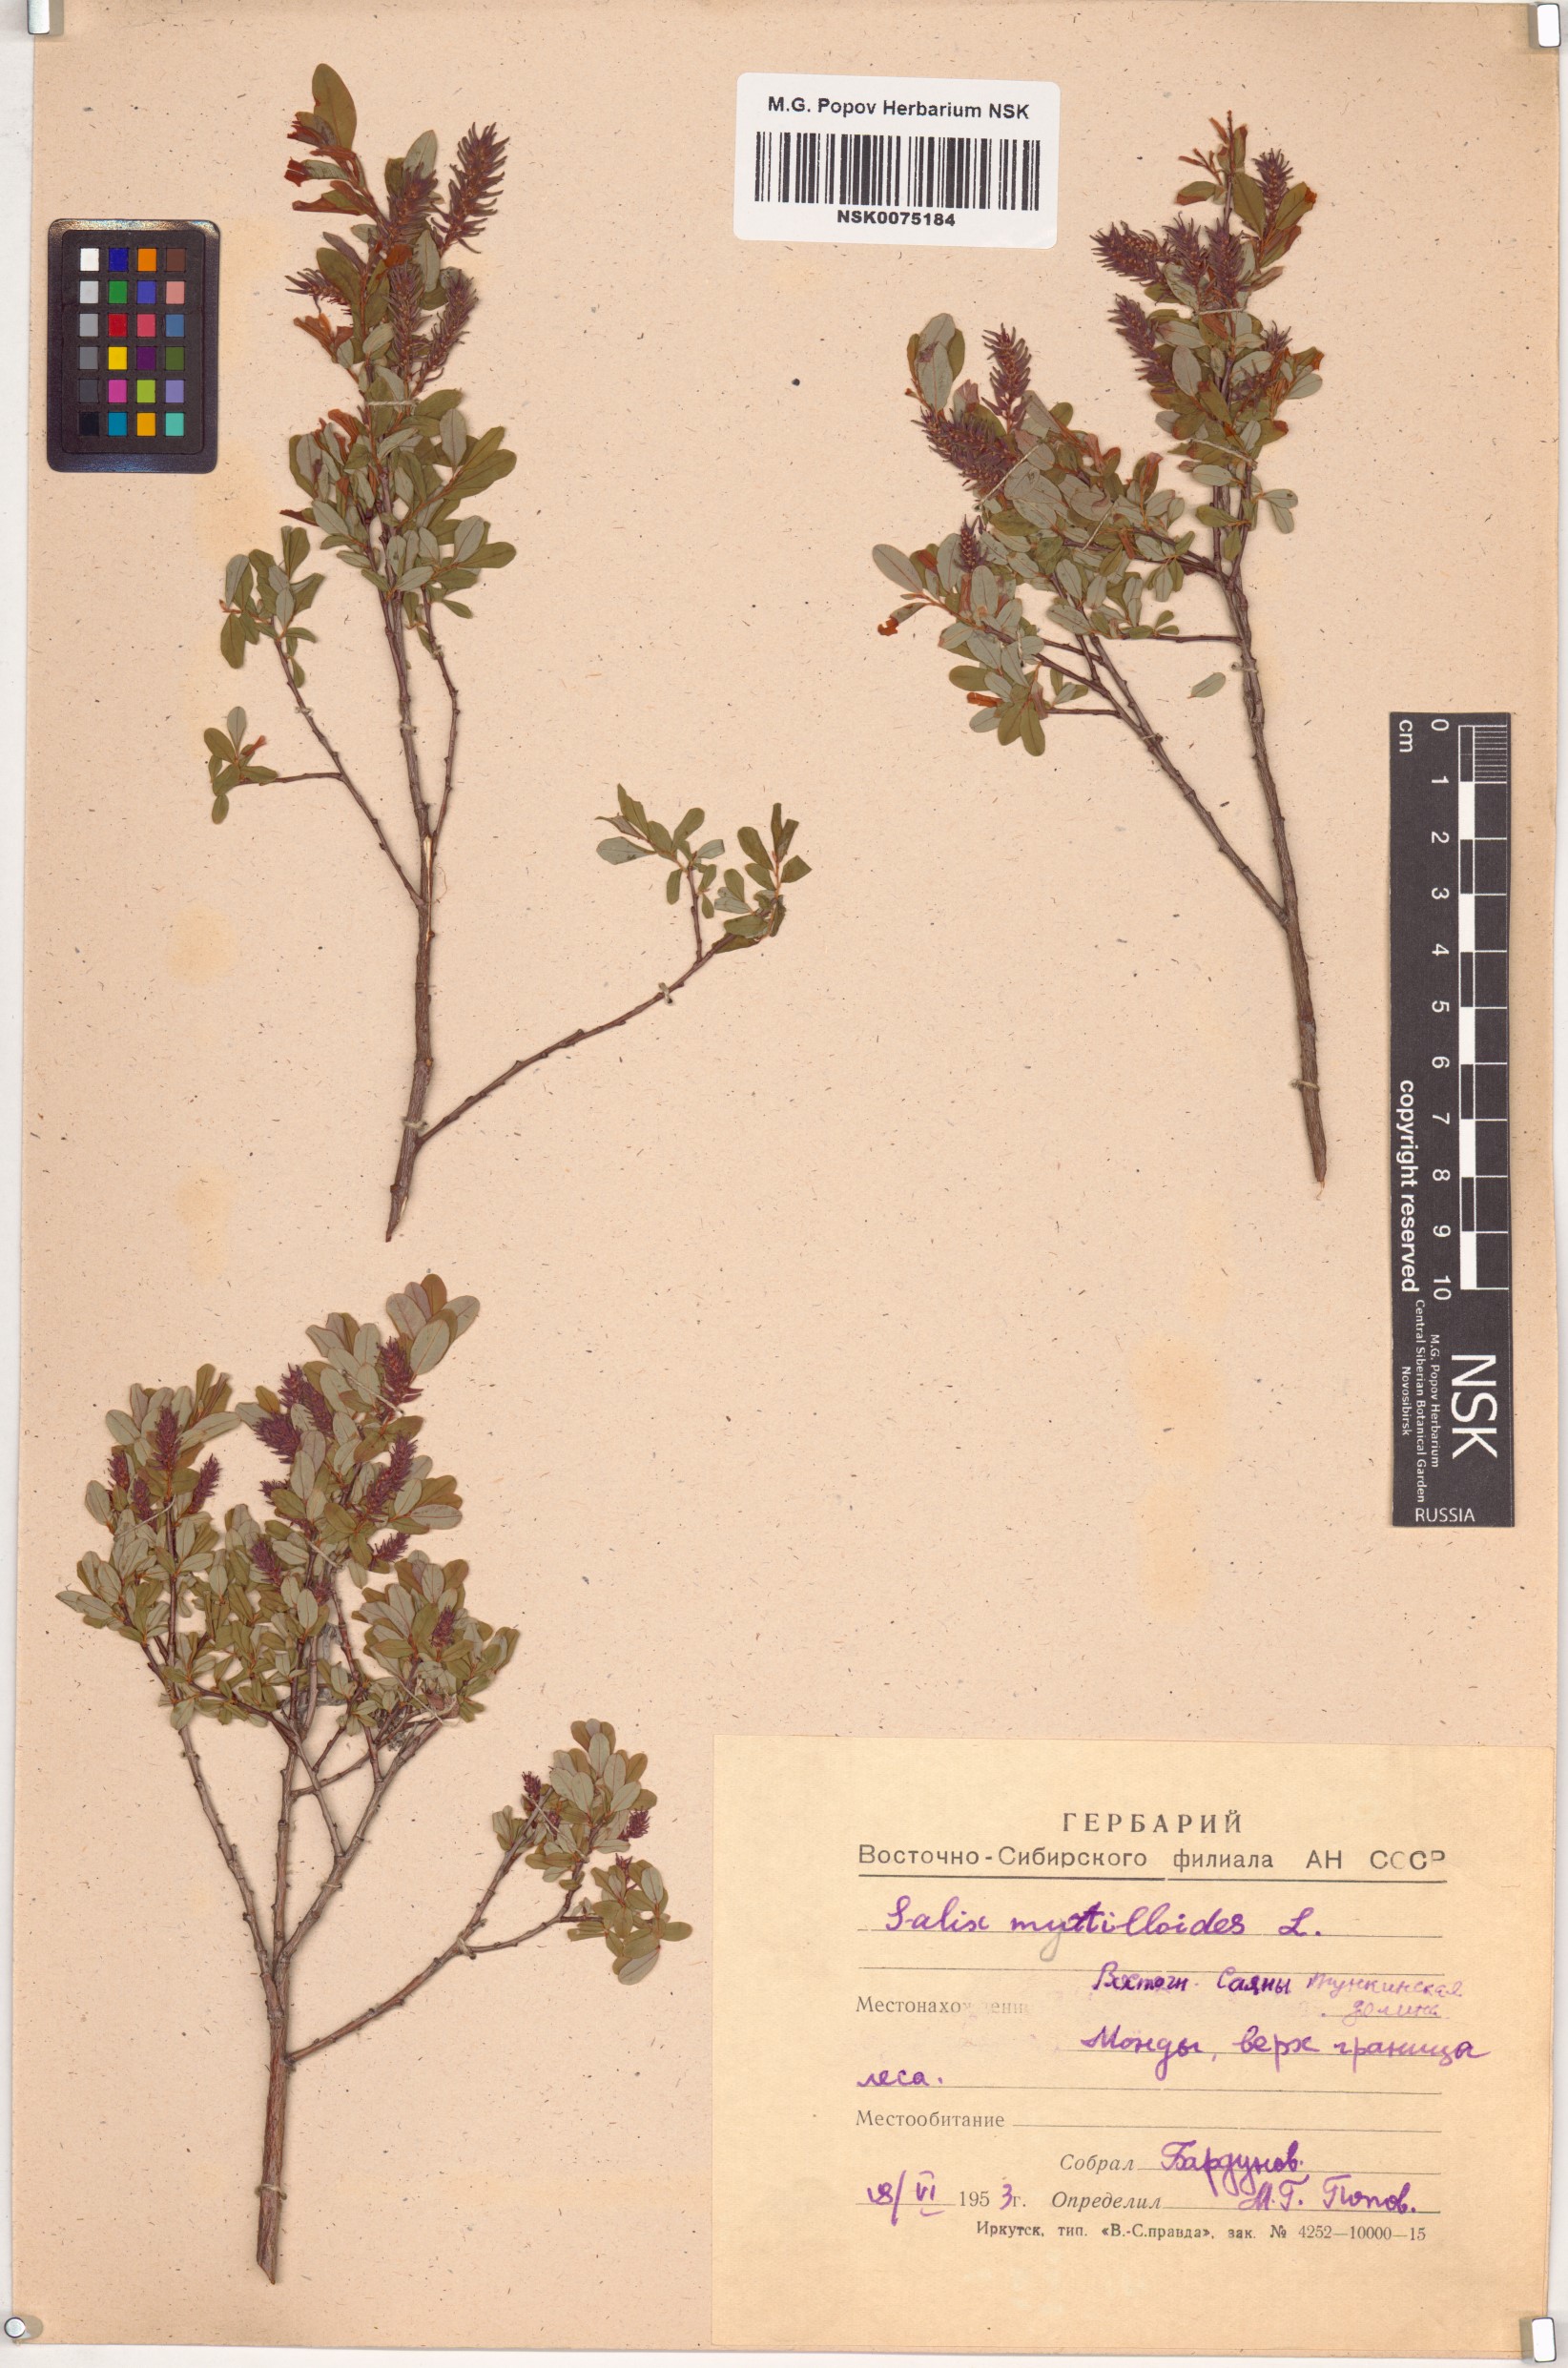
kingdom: Plantae
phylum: Tracheophyta
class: Magnoliopsida
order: Malpighiales
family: Salicaceae
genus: Salix
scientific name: Salix myrtilloides
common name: Myrtle-leaved willow
